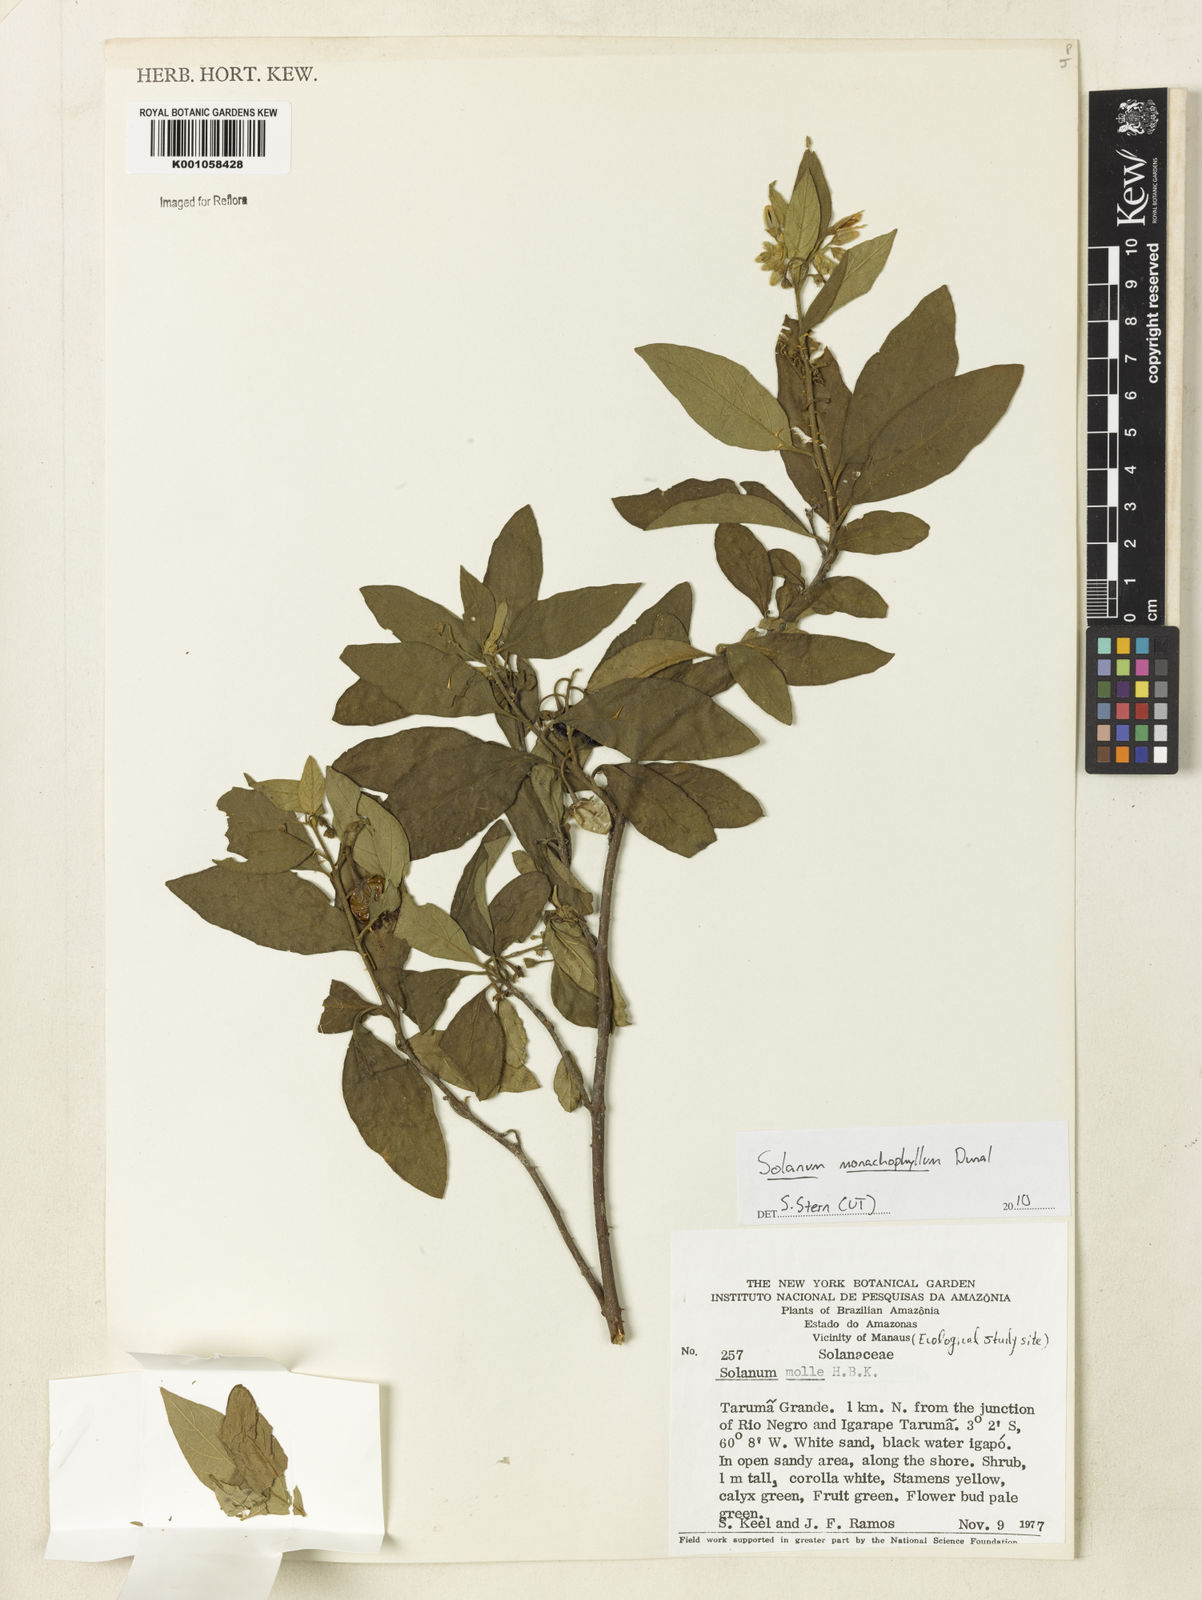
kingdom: Plantae
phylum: Tracheophyta
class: Magnoliopsida
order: Solanales
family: Solanaceae
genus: Solanum
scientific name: Solanum monachophyllum
